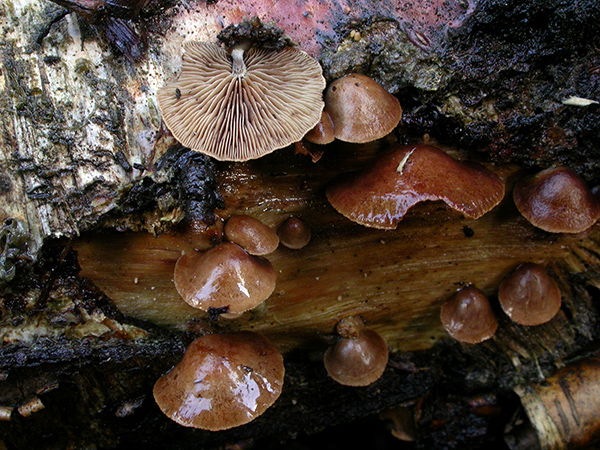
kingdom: Fungi
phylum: Basidiomycota
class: Agaricomycetes
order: Agaricales
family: Strophariaceae
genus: Deconica
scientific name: Deconica horizontalis
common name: ved-stråhat
